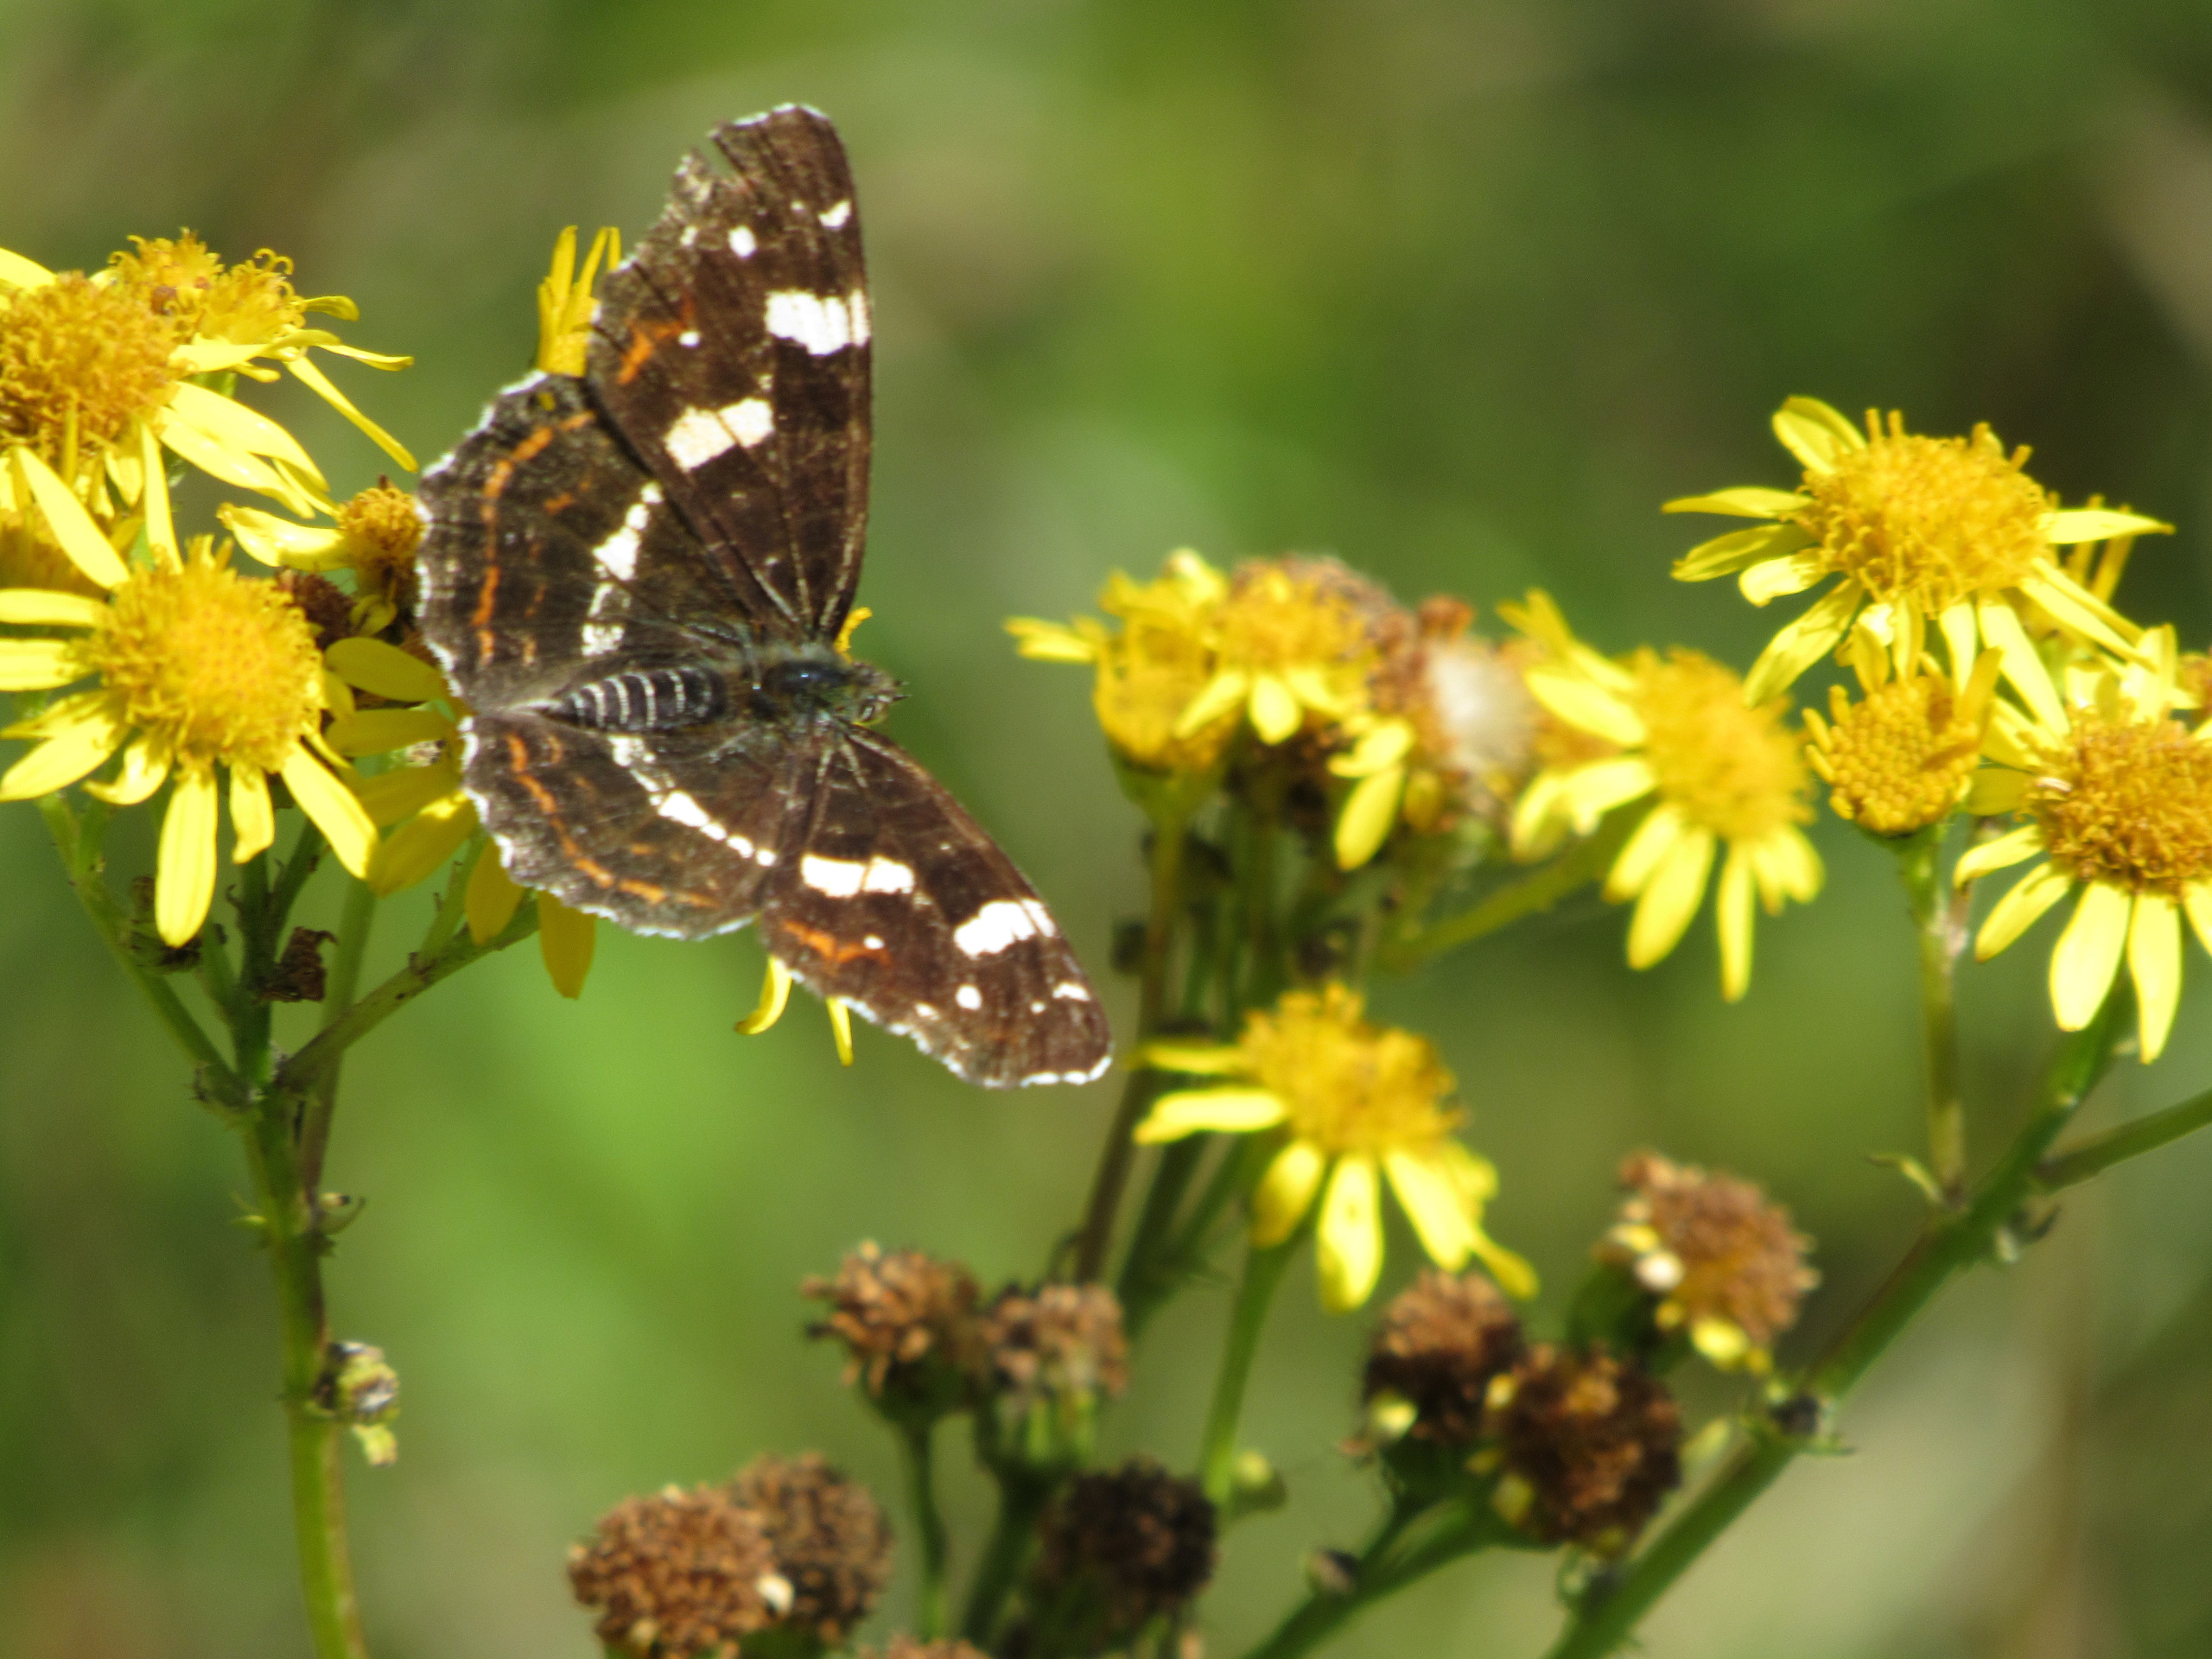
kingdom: Animalia
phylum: Arthropoda
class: Insecta
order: Lepidoptera
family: Nymphalidae
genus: Araschnia
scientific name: Araschnia levana
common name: Nældesommerfugl
